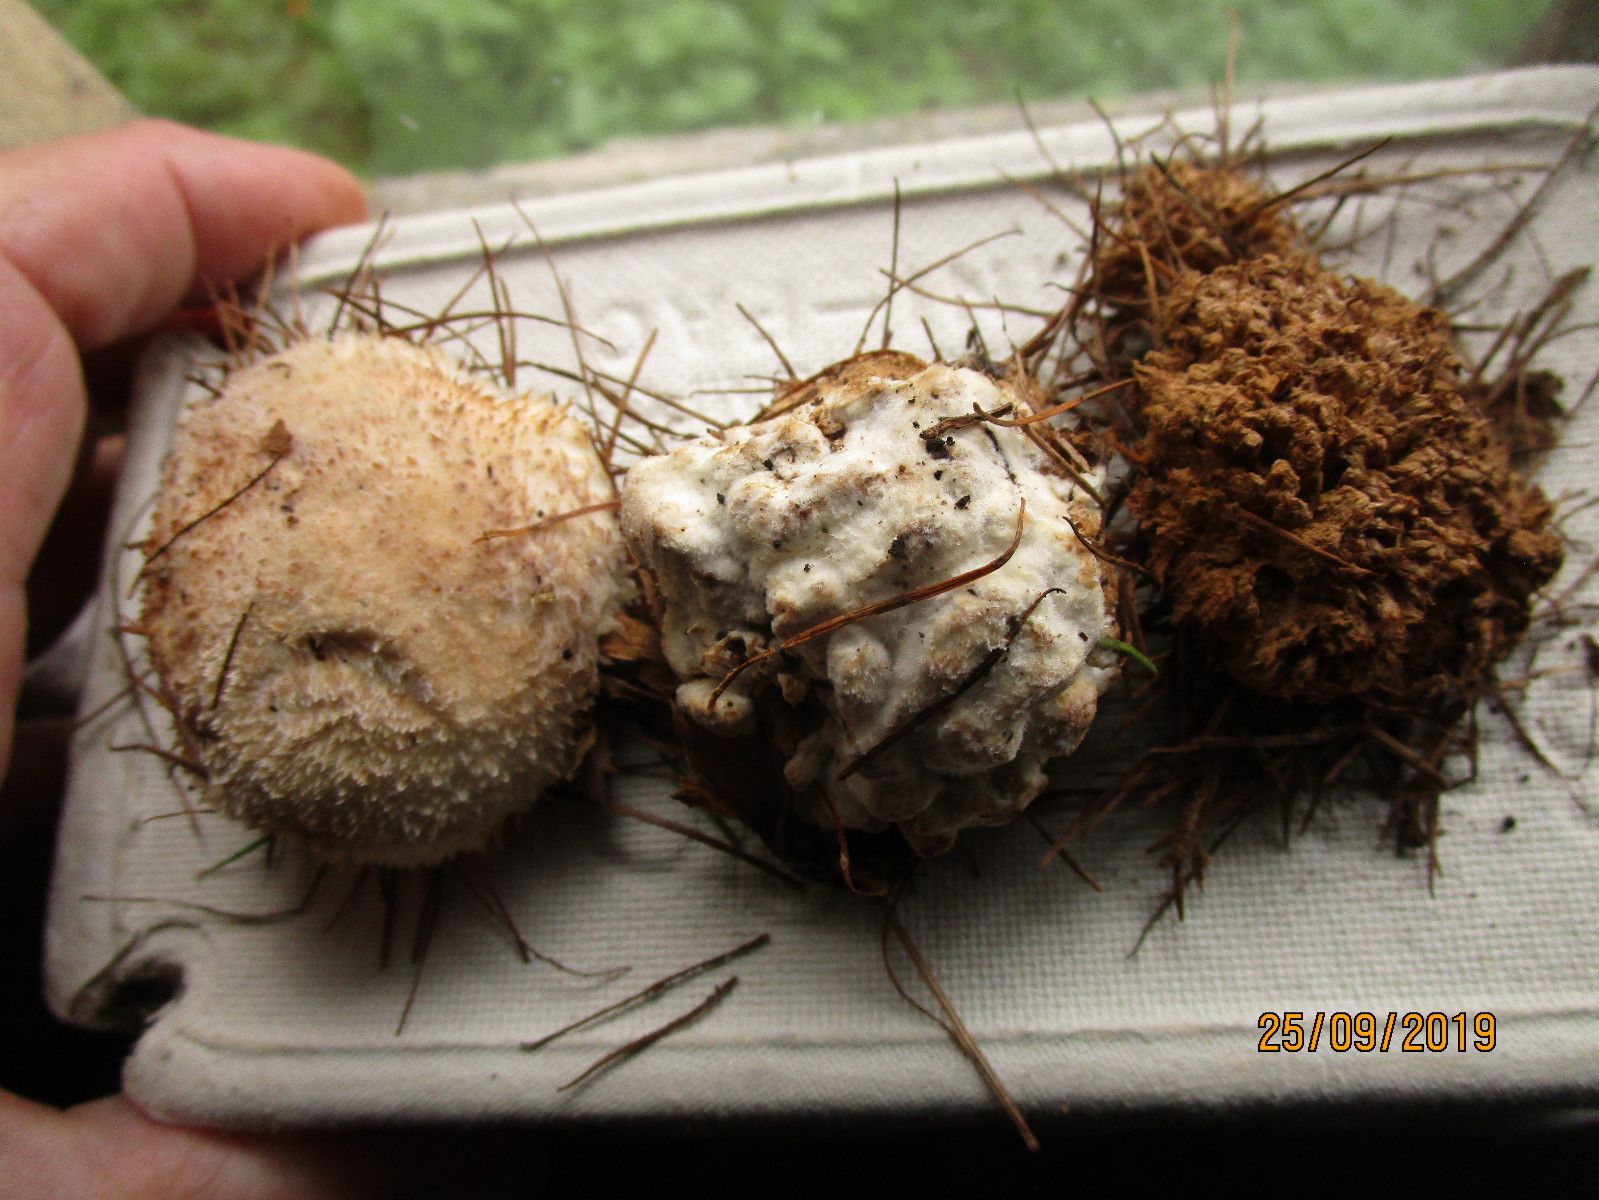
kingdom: Fungi
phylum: Basidiomycota
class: Agaricomycetes
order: Polyporales
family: Dacryobolaceae
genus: Postia
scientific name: Postia ptychogaster
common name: støvende kødporesvamp
